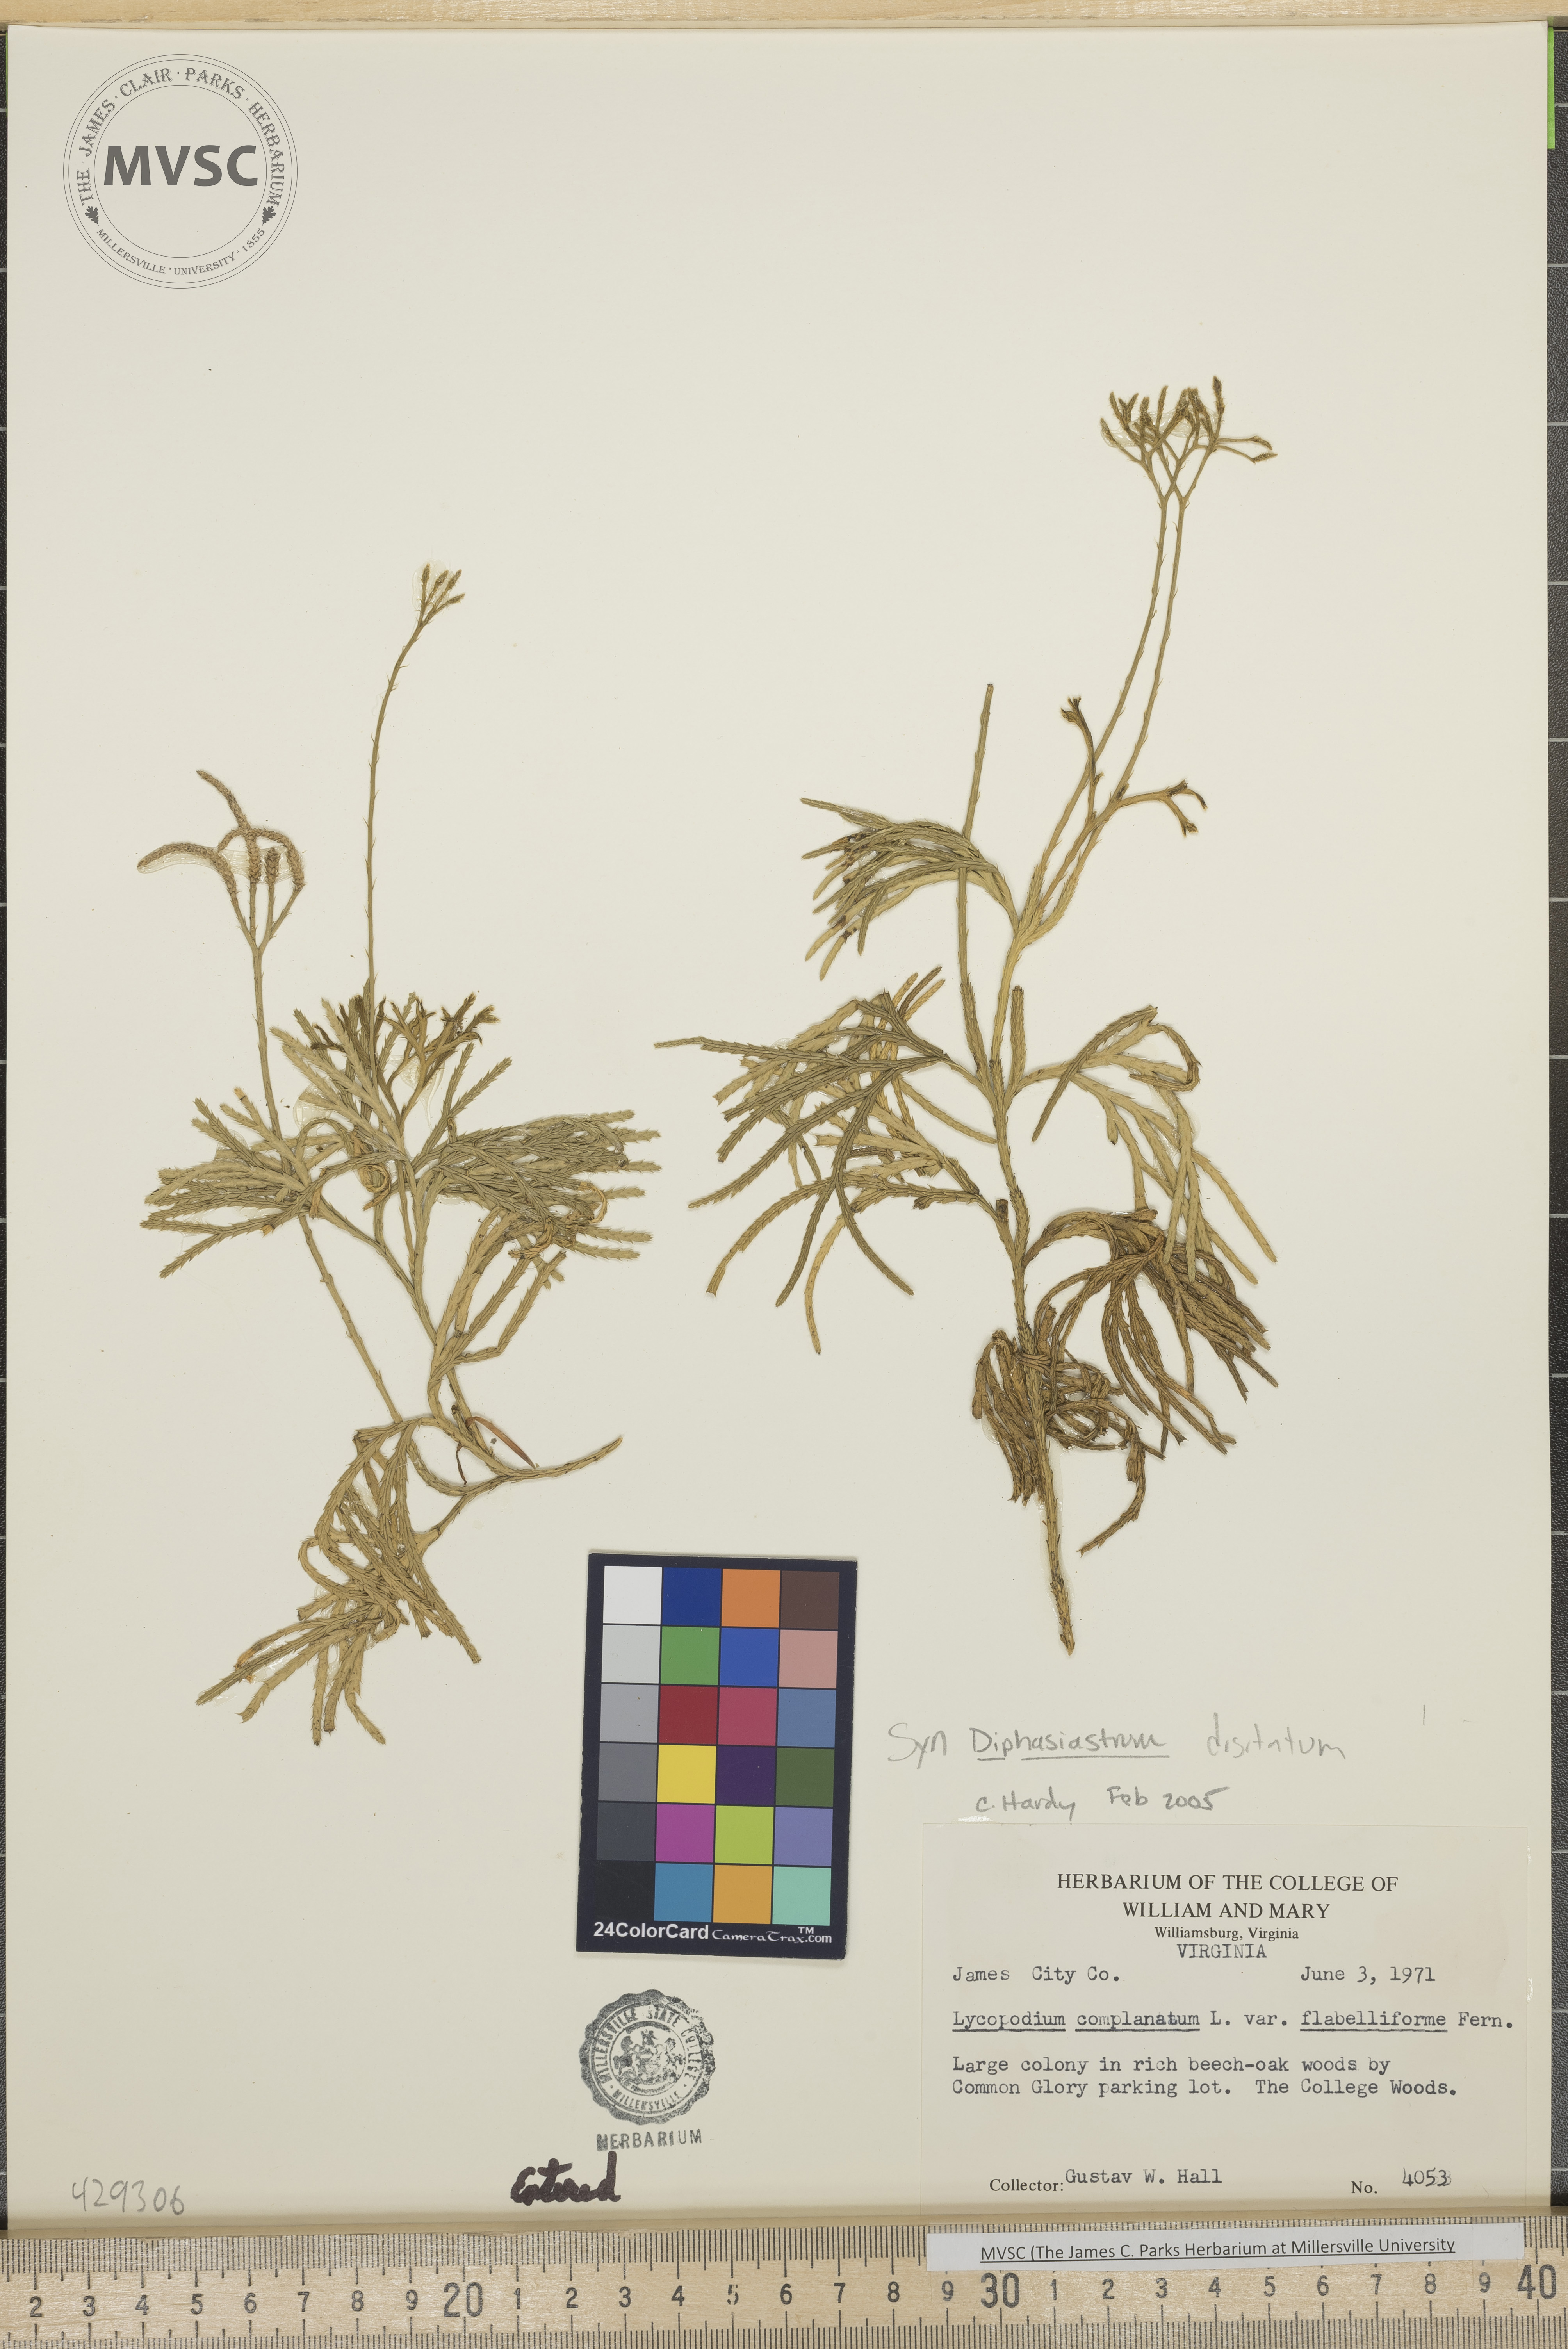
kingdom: Plantae
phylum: Tracheophyta
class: Lycopodiopsida
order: Lycopodiales
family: Lycopodiaceae
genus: Diphasiastrum
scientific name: Diphasiastrum digitatum
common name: Southern running-pine
